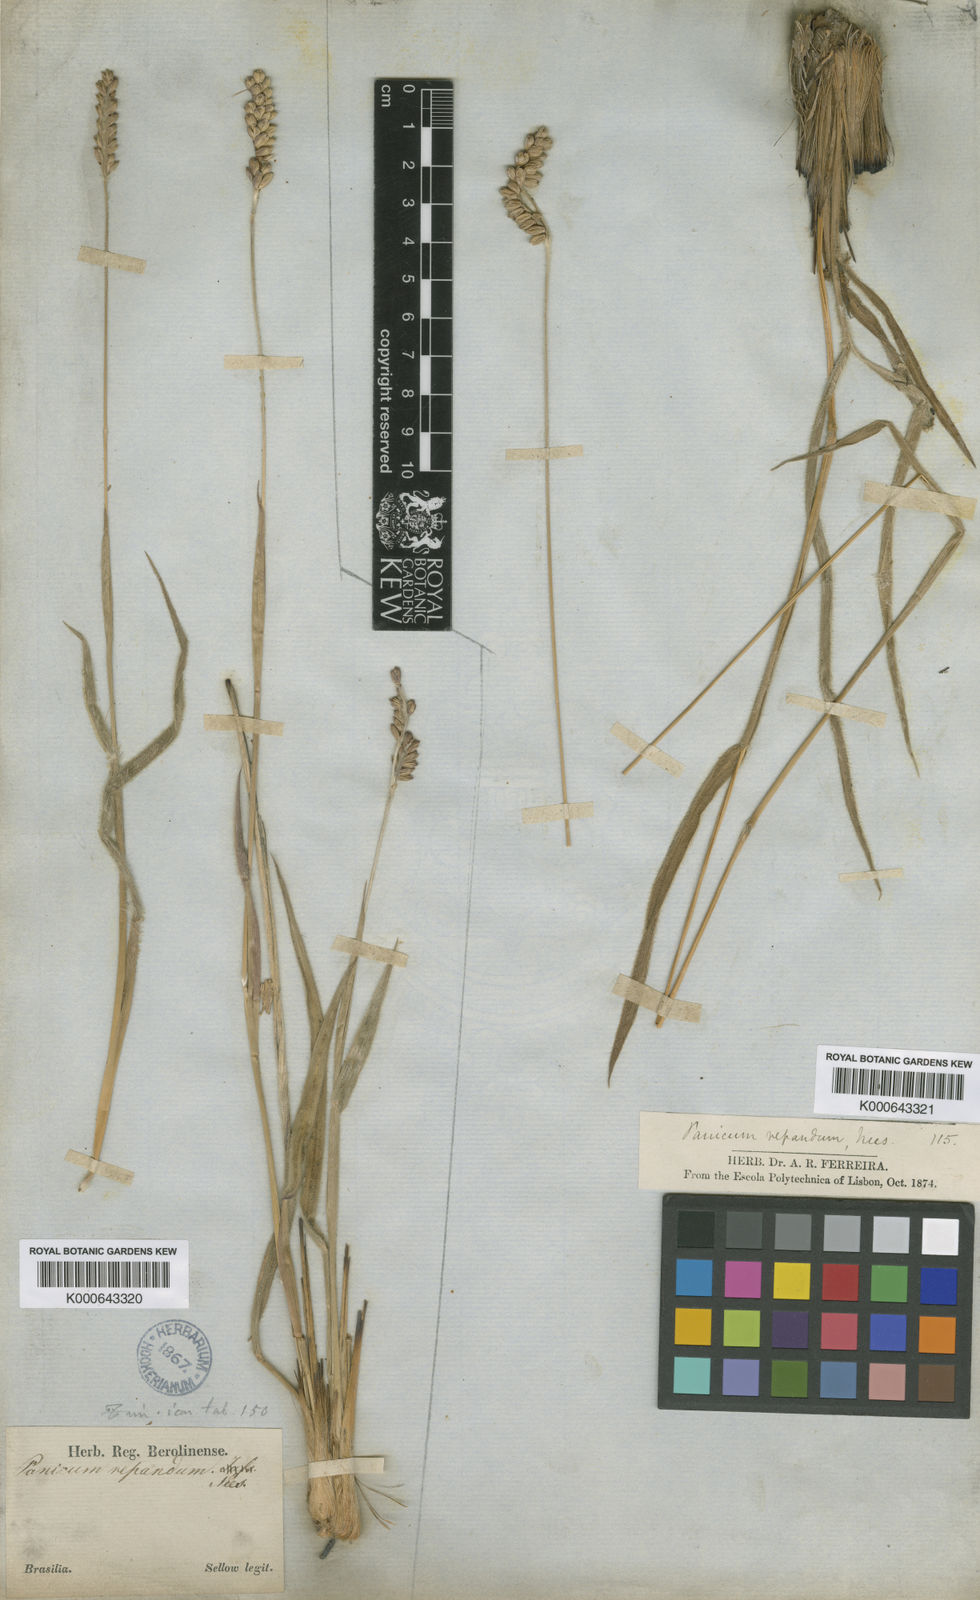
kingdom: Plantae
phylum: Tracheophyta
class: Liliopsida
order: Poales
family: Poaceae
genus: Paspalum
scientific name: Paspalum repandum
